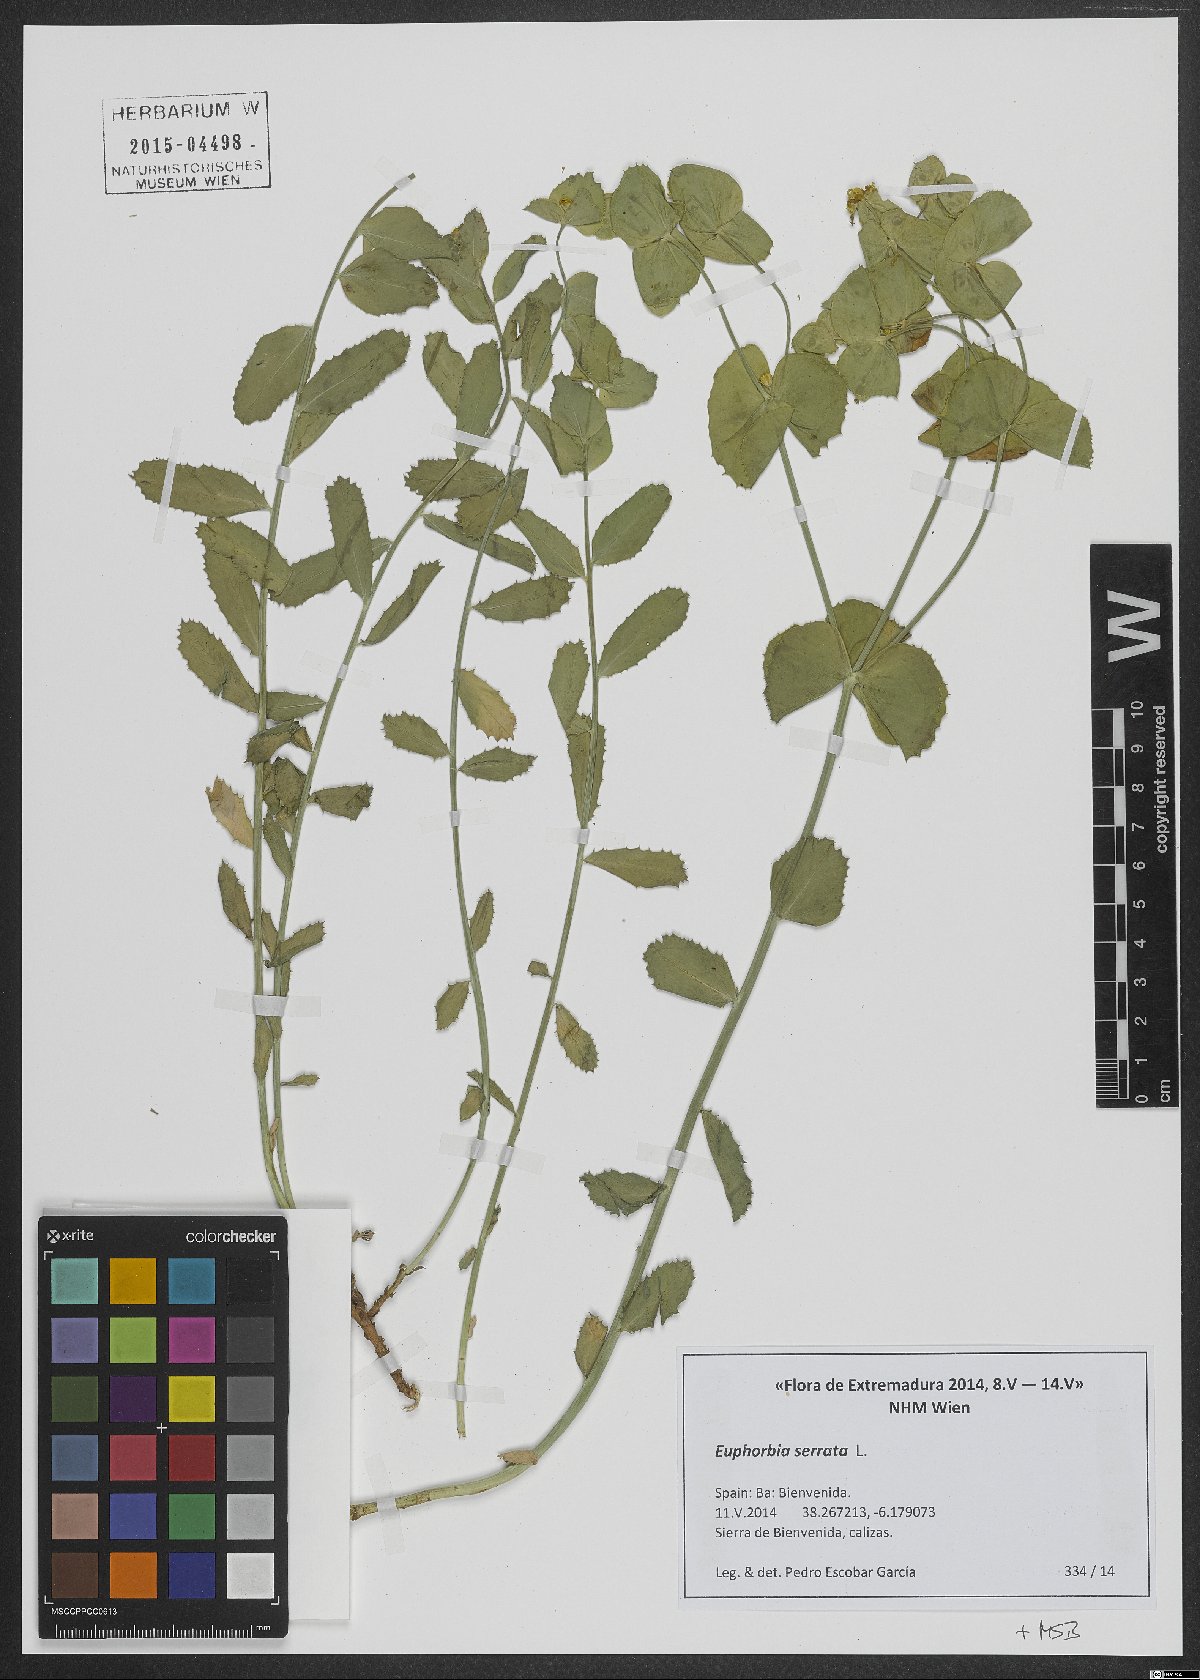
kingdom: Plantae
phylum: Tracheophyta
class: Magnoliopsida
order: Malpighiales
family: Euphorbiaceae
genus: Euphorbia
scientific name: Euphorbia serrata
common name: Serrate spurge
